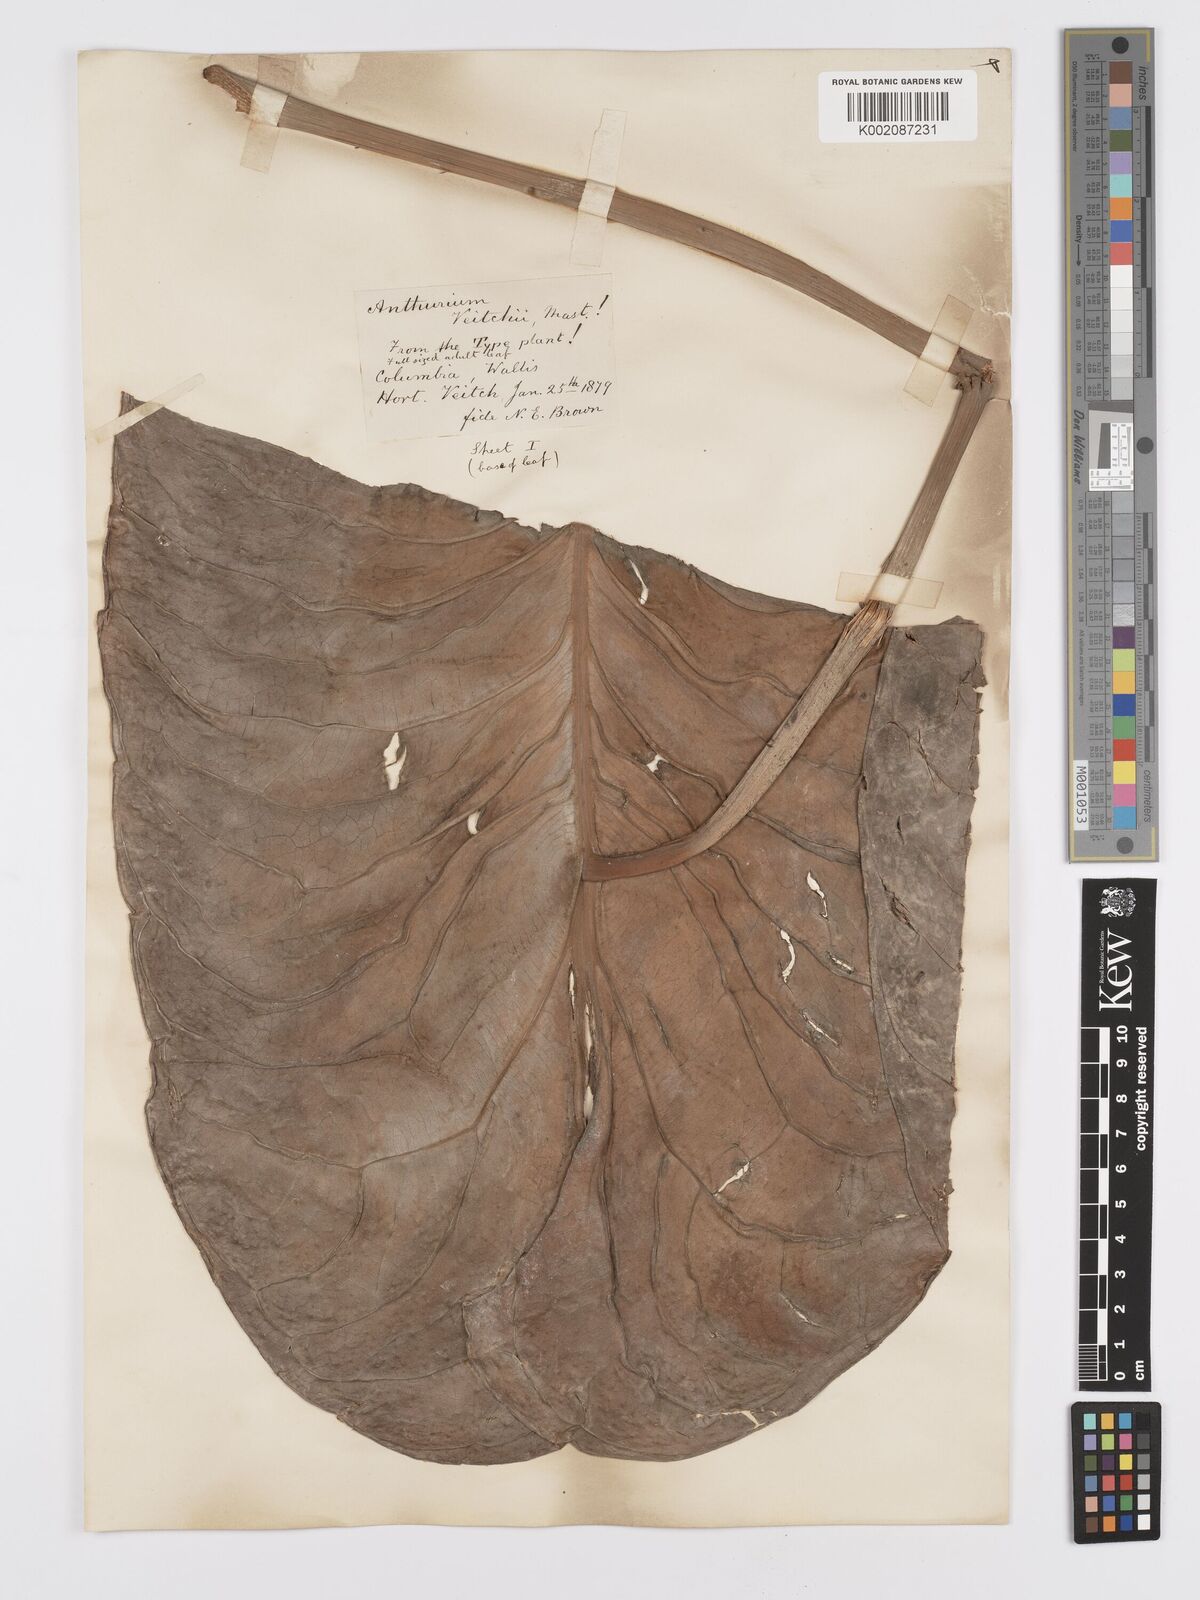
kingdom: Plantae
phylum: Tracheophyta
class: Liliopsida
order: Alismatales
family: Araceae
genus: Anthurium
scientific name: Anthurium veitchii
